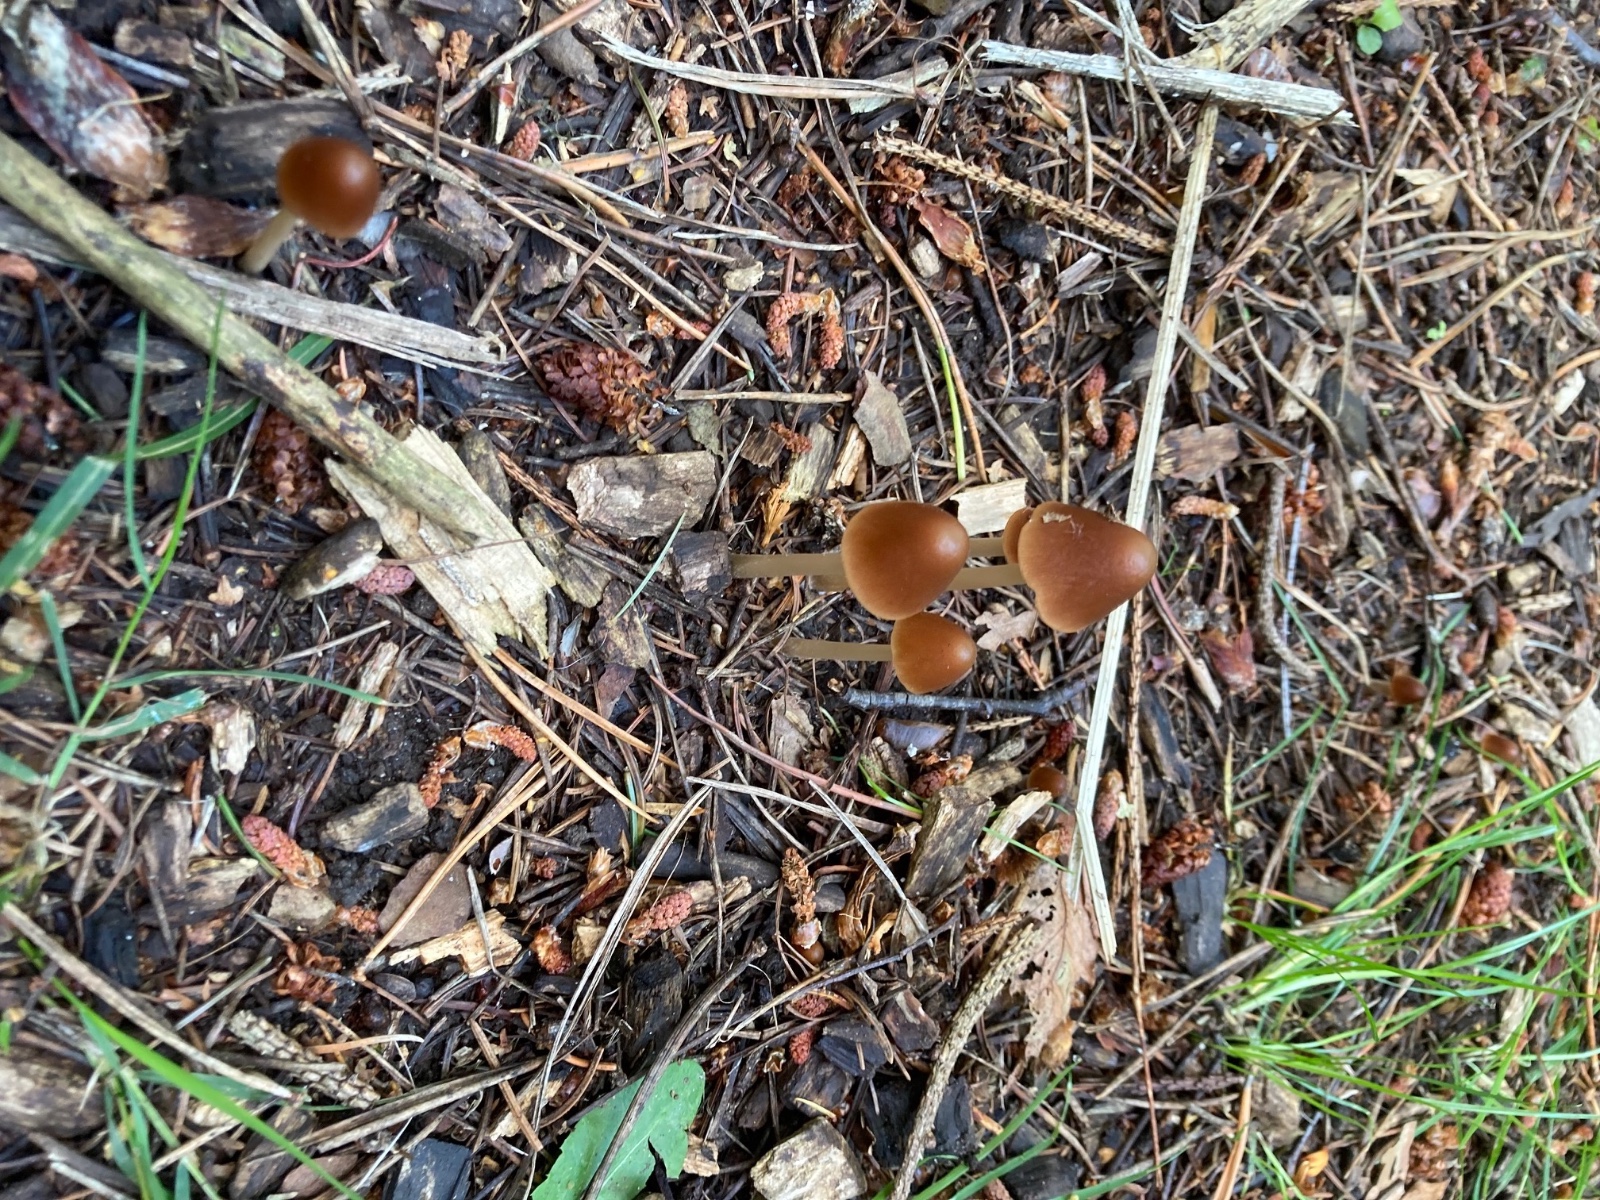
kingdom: Fungi
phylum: Basidiomycota
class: Agaricomycetes
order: Agaricales
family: Psathyrellaceae
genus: Parasola
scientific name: Parasola conopilea
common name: kegle-hjulhat
